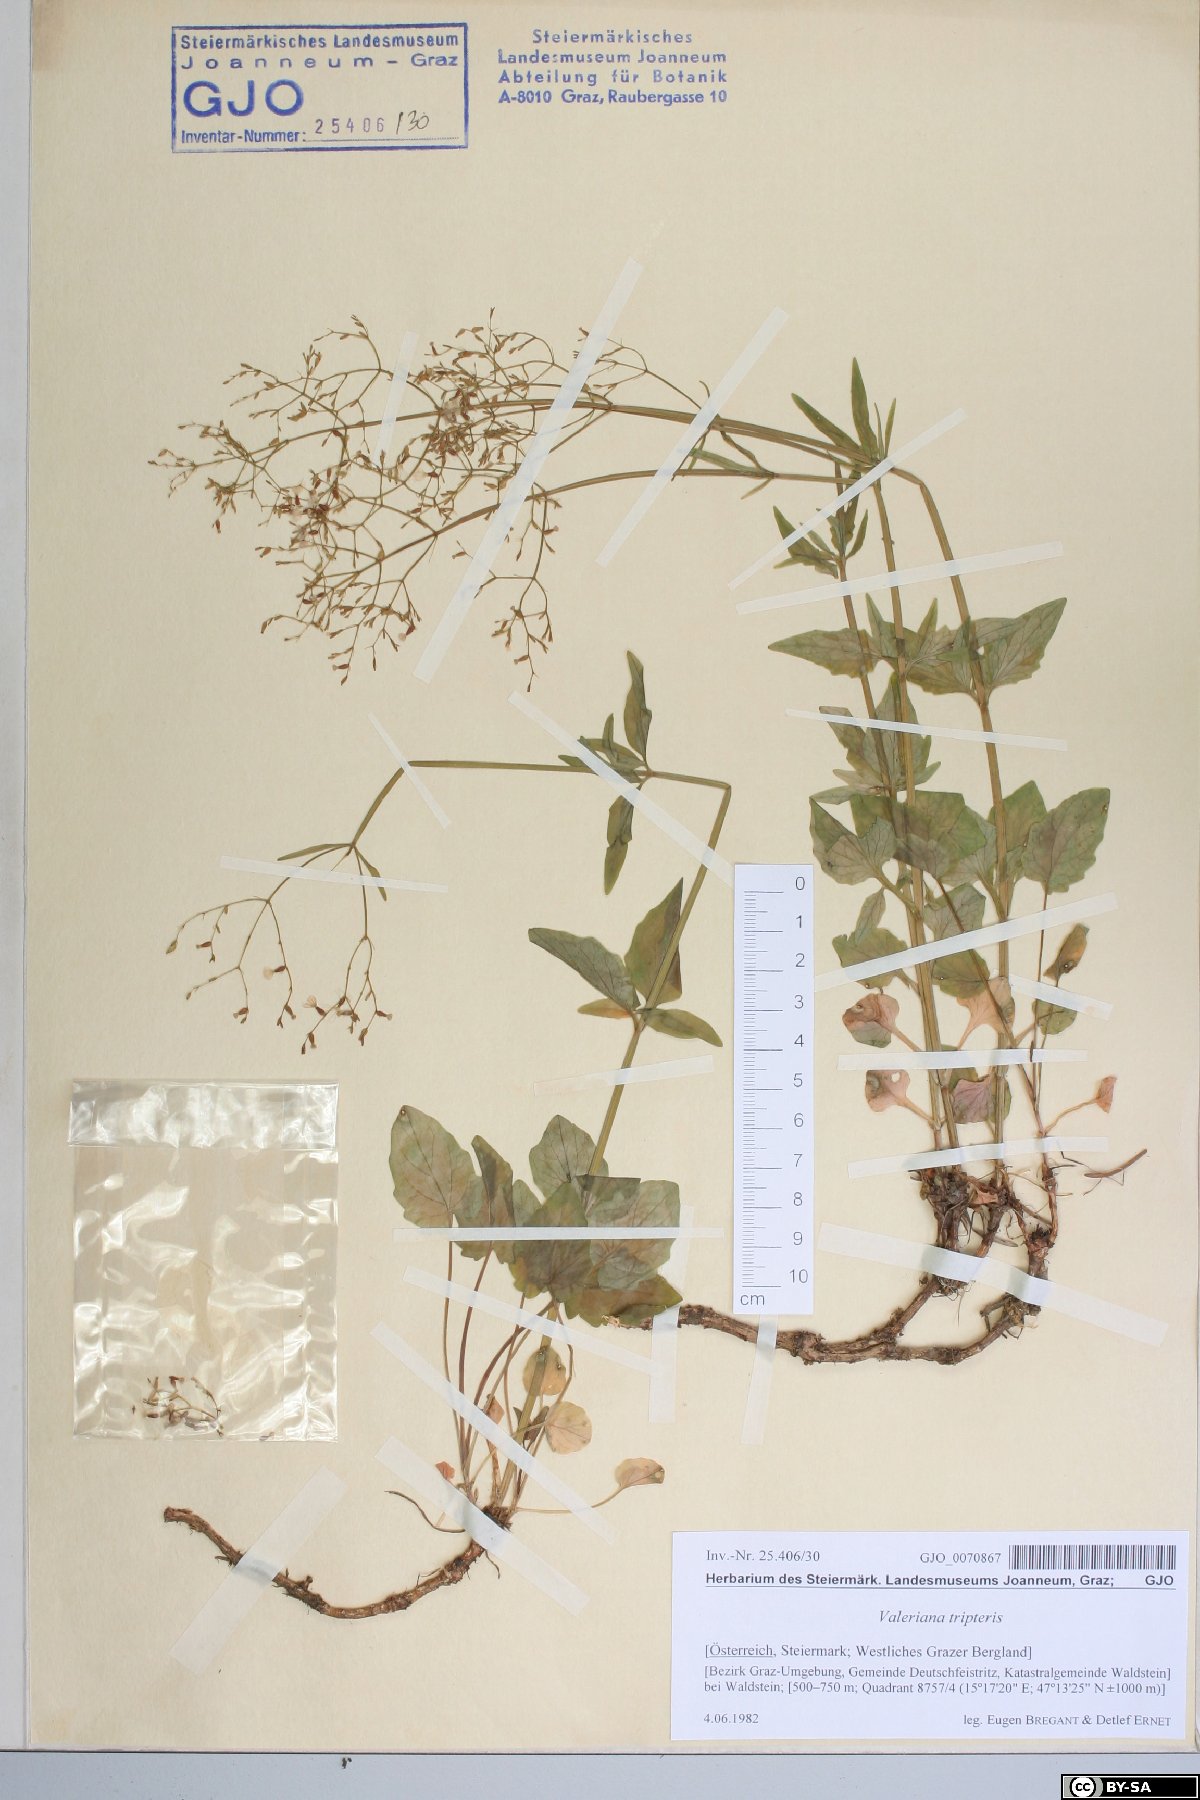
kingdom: Plantae
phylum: Tracheophyta
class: Magnoliopsida
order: Dipsacales
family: Caprifoliaceae
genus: Valeriana
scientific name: Valeriana tripteris
